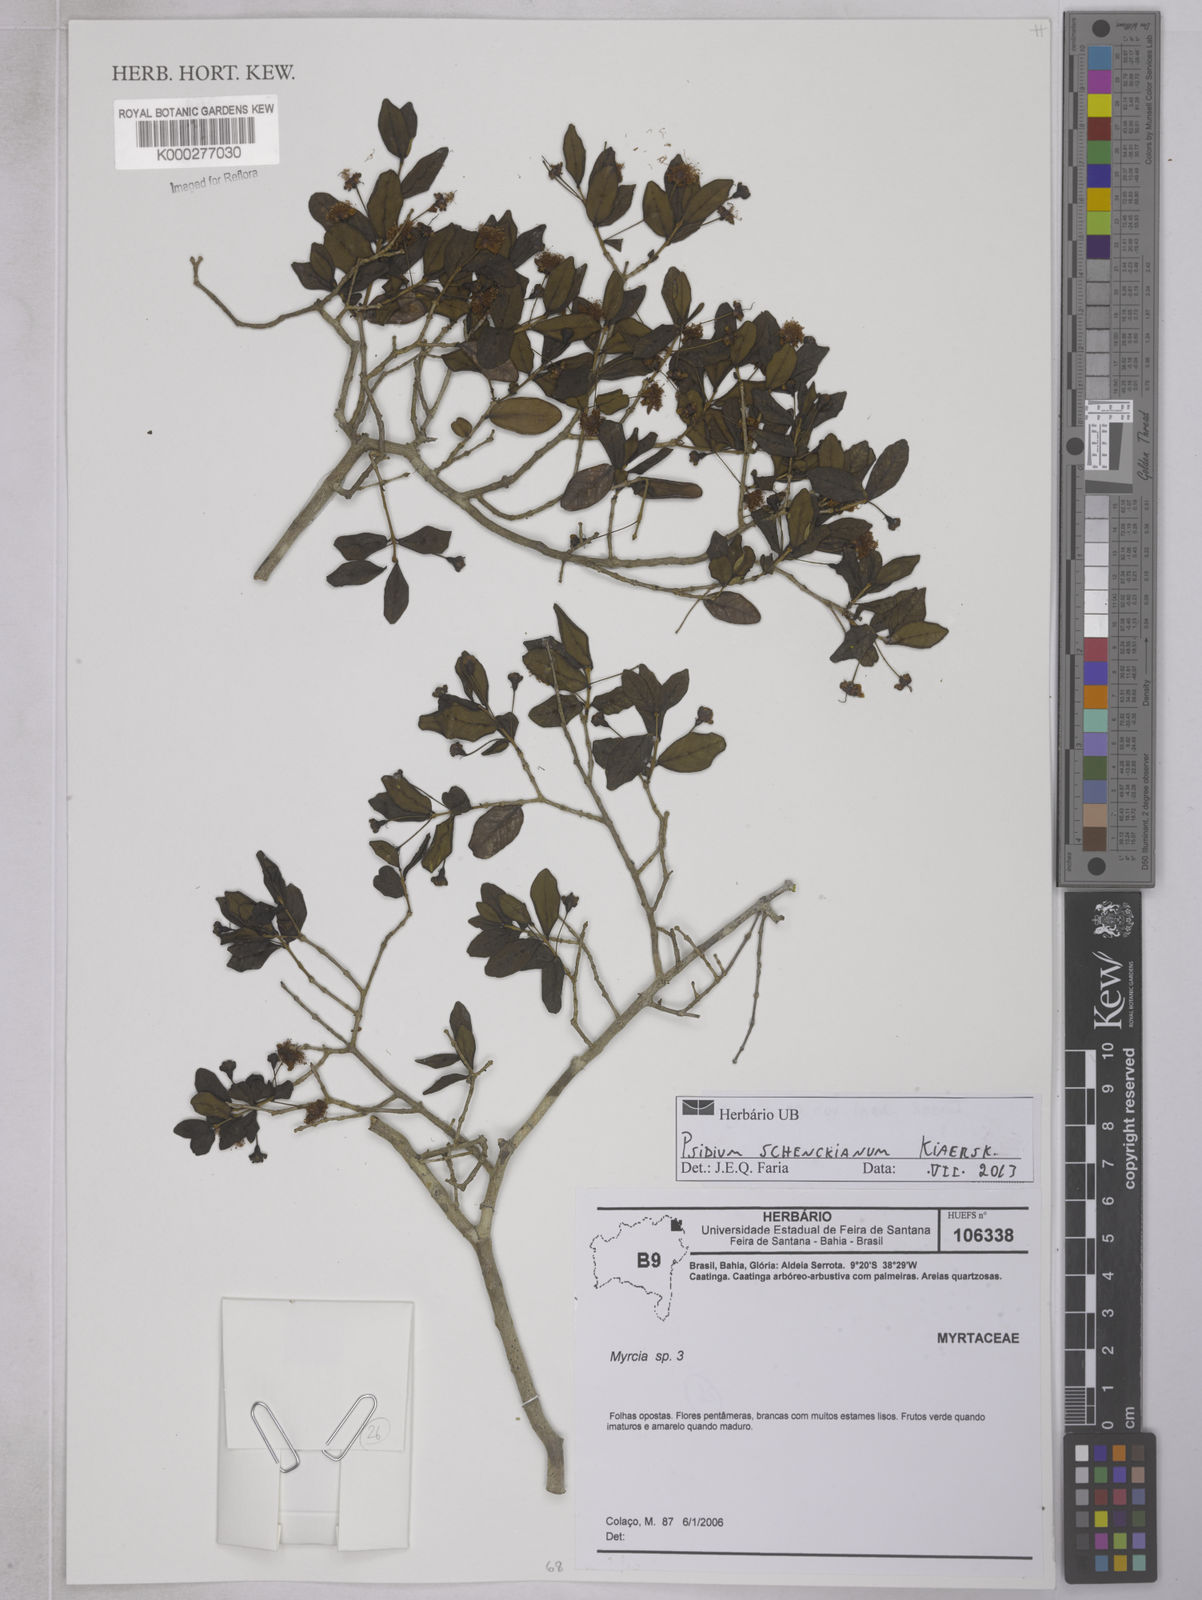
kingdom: Plantae
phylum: Tracheophyta
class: Magnoliopsida
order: Myrtales
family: Myrtaceae
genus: Psidium
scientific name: Psidium schenckianum
